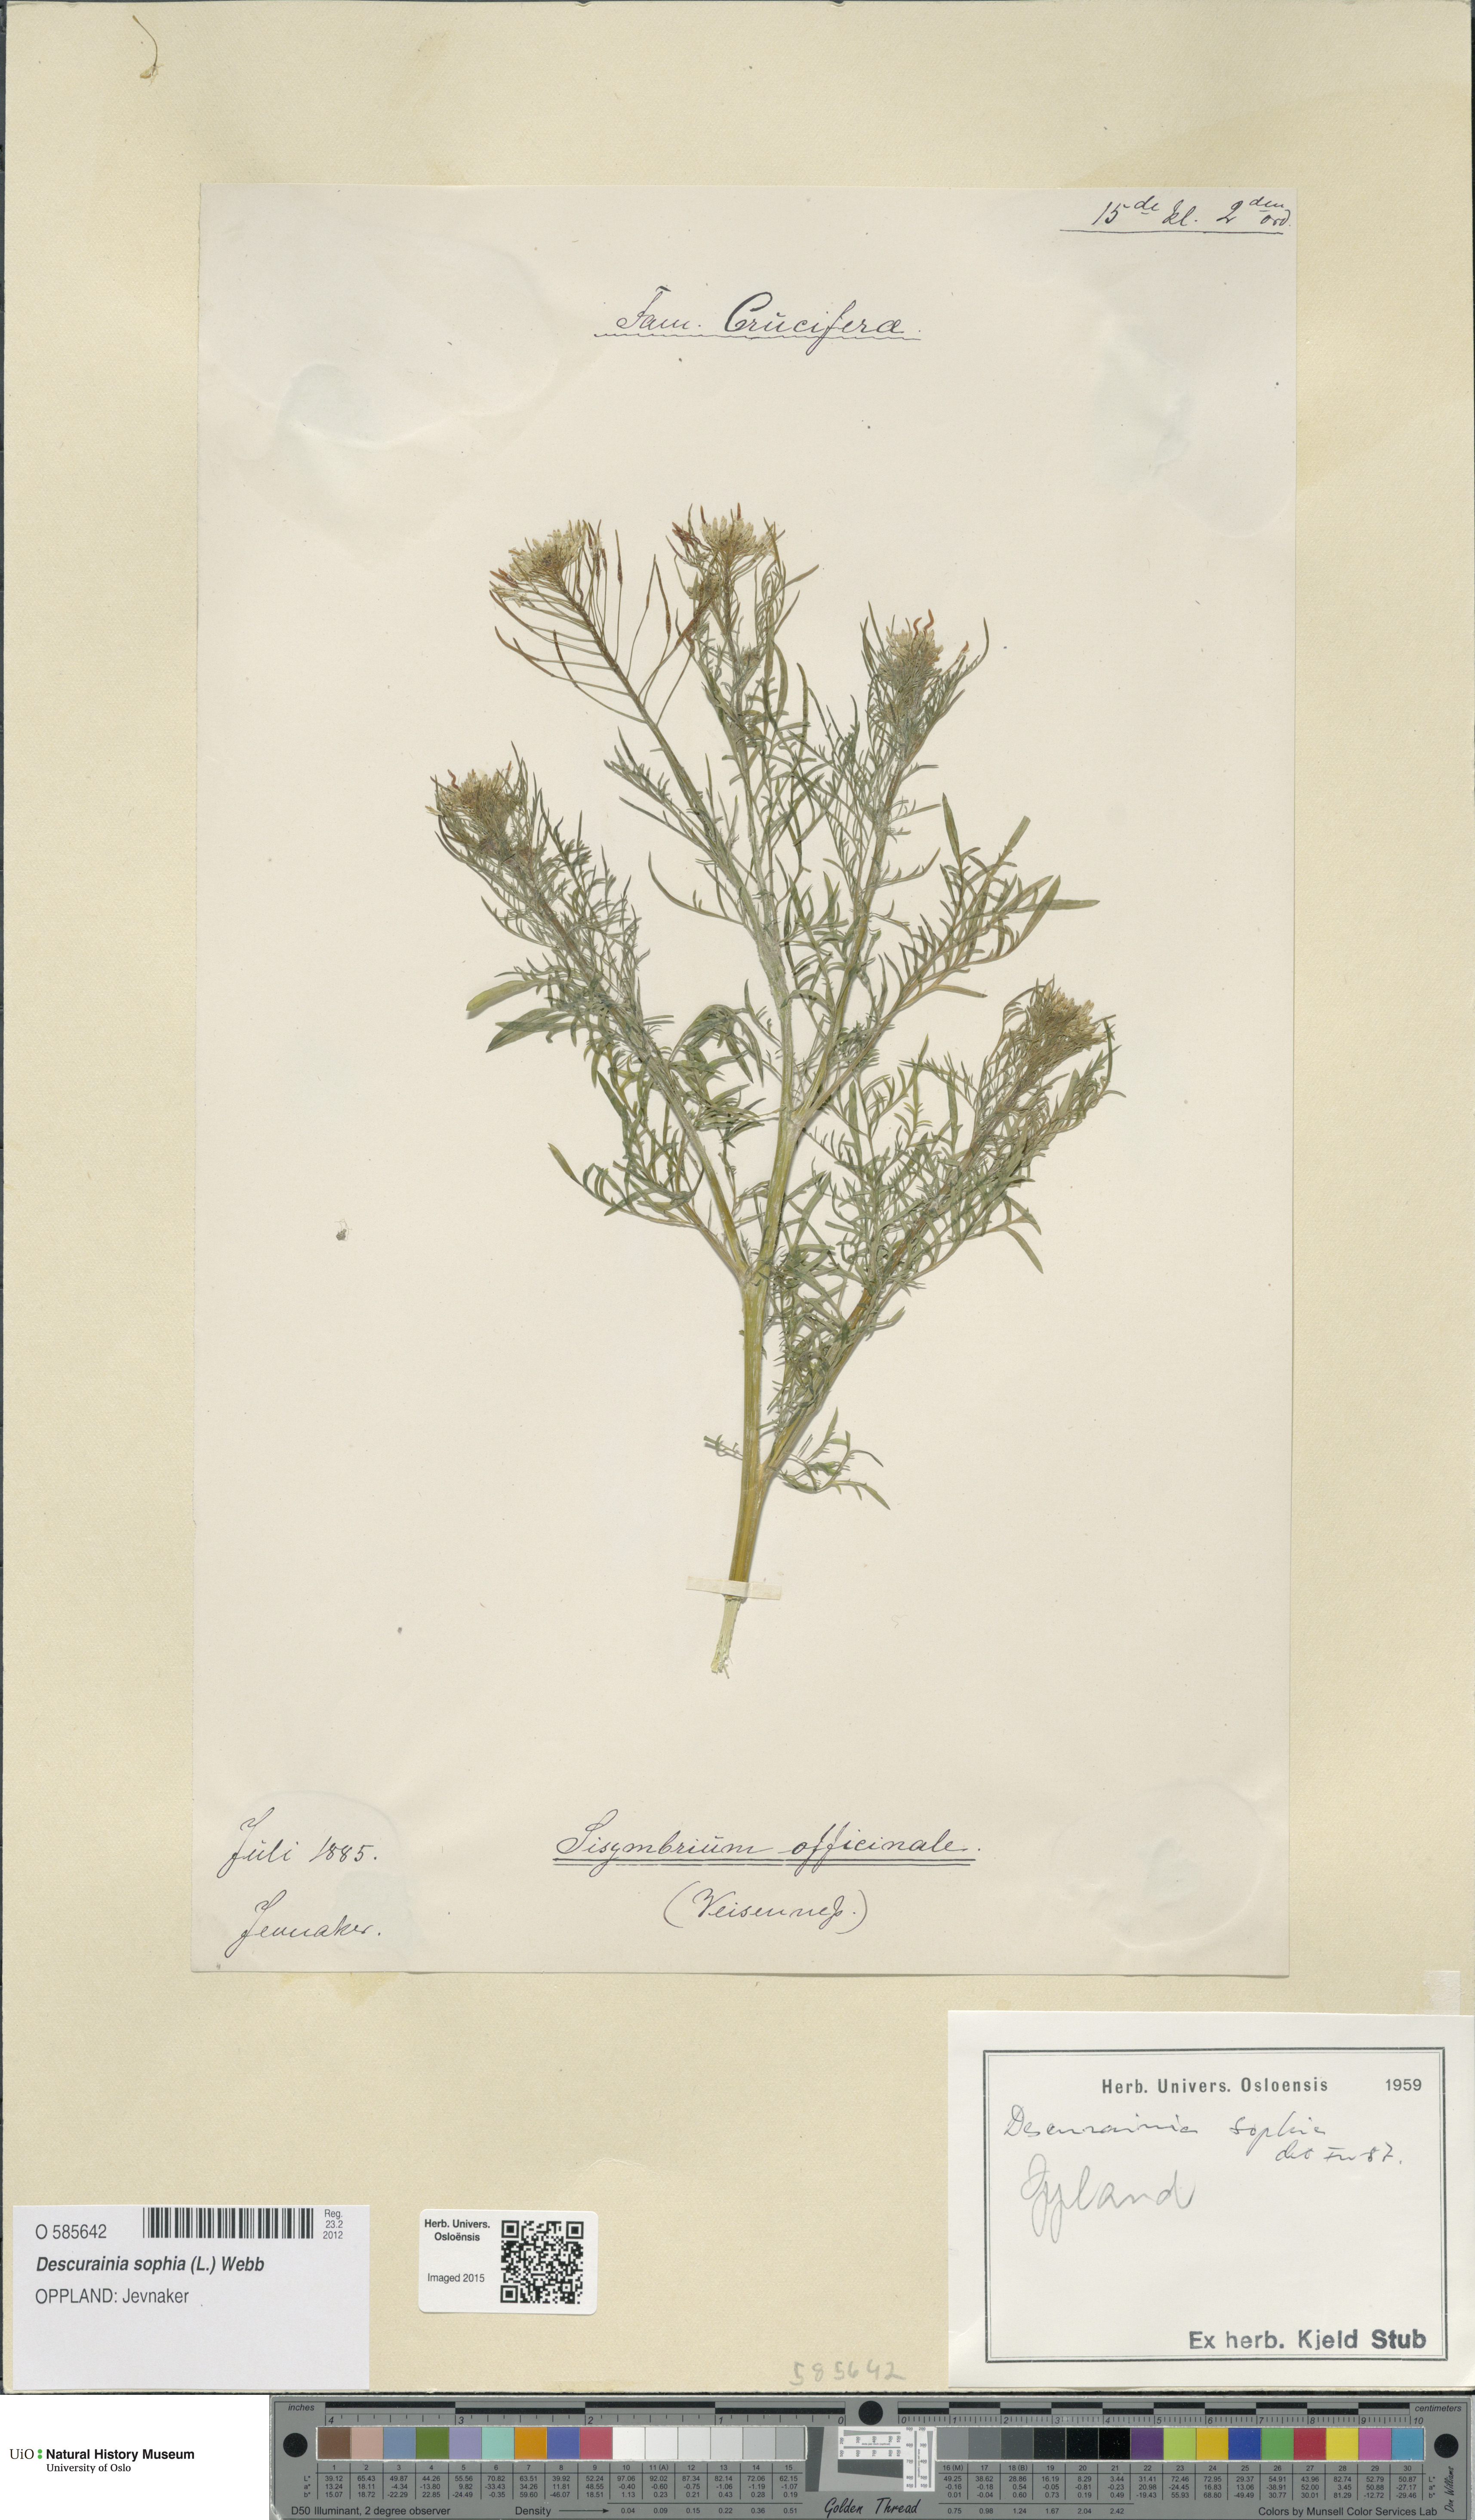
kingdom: Plantae
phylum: Tracheophyta
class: Magnoliopsida
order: Brassicales
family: Brassicaceae
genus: Descurainia
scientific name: Descurainia sophia
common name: Flixweed
